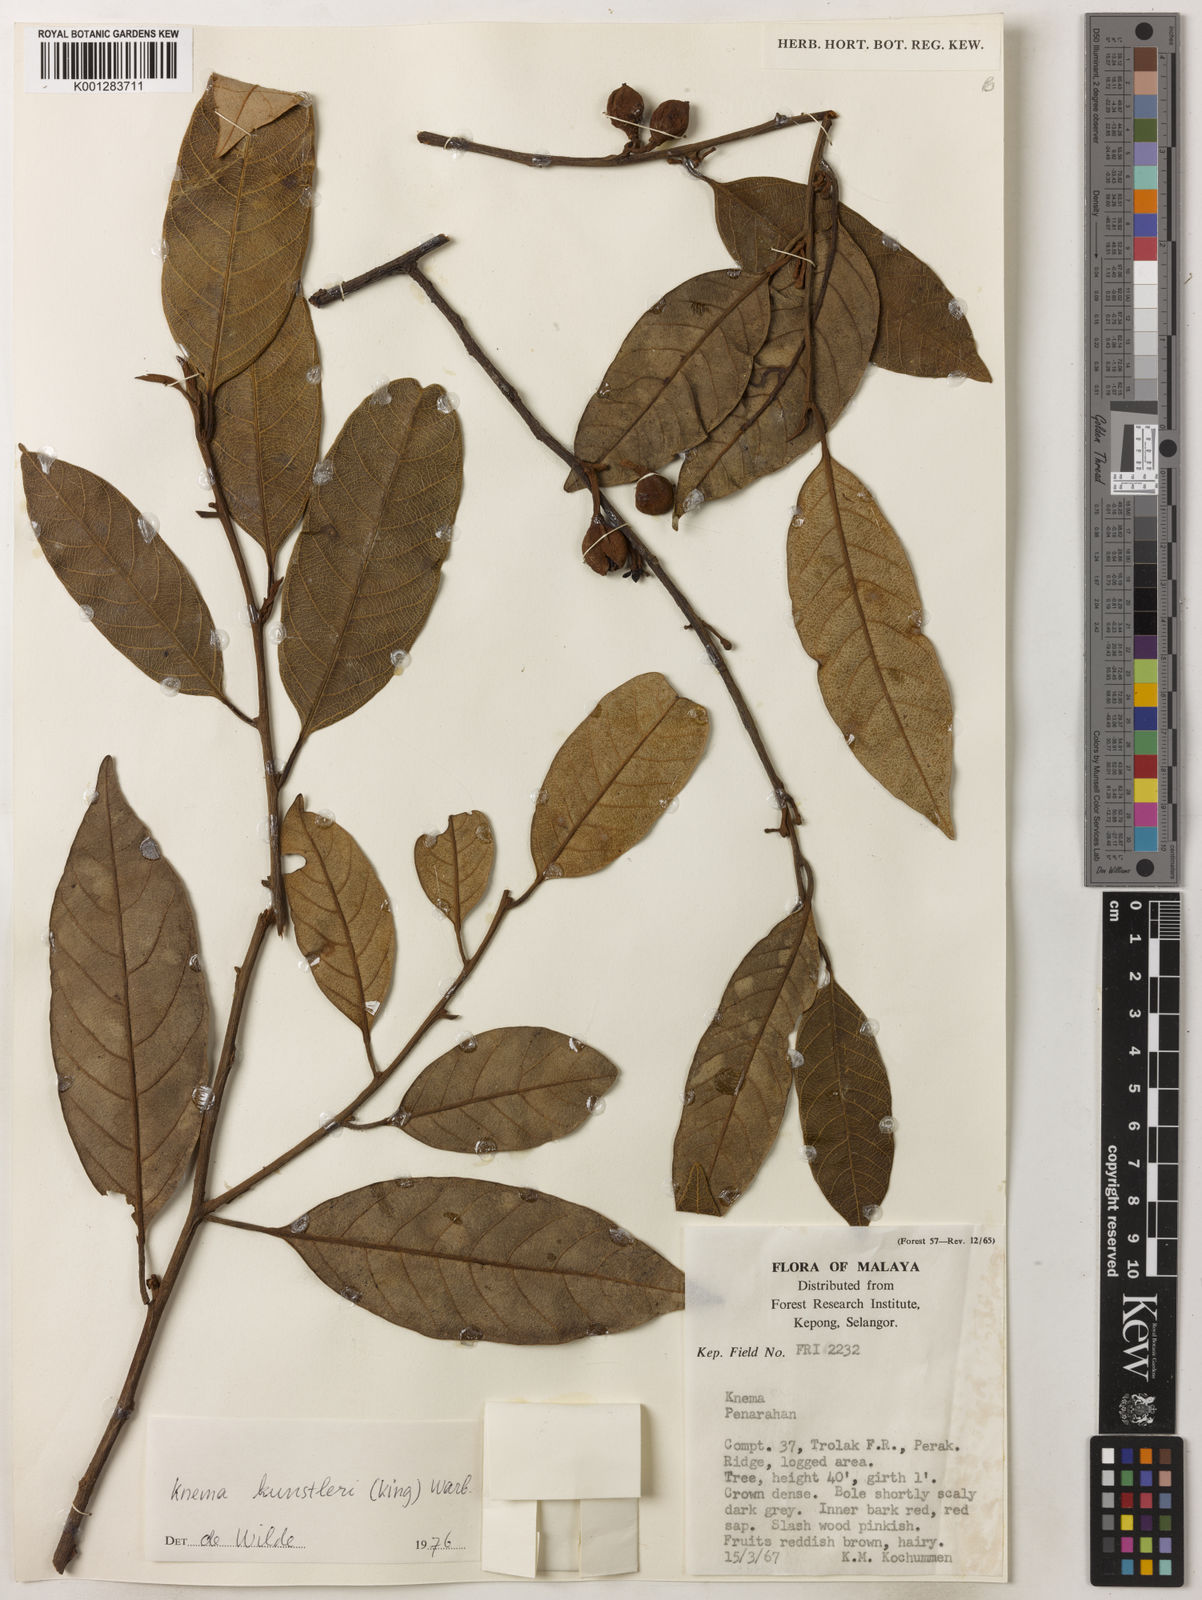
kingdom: Plantae
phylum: Tracheophyta
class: Magnoliopsida
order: Magnoliales
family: Myristicaceae
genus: Knema
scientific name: Knema kunstleri
